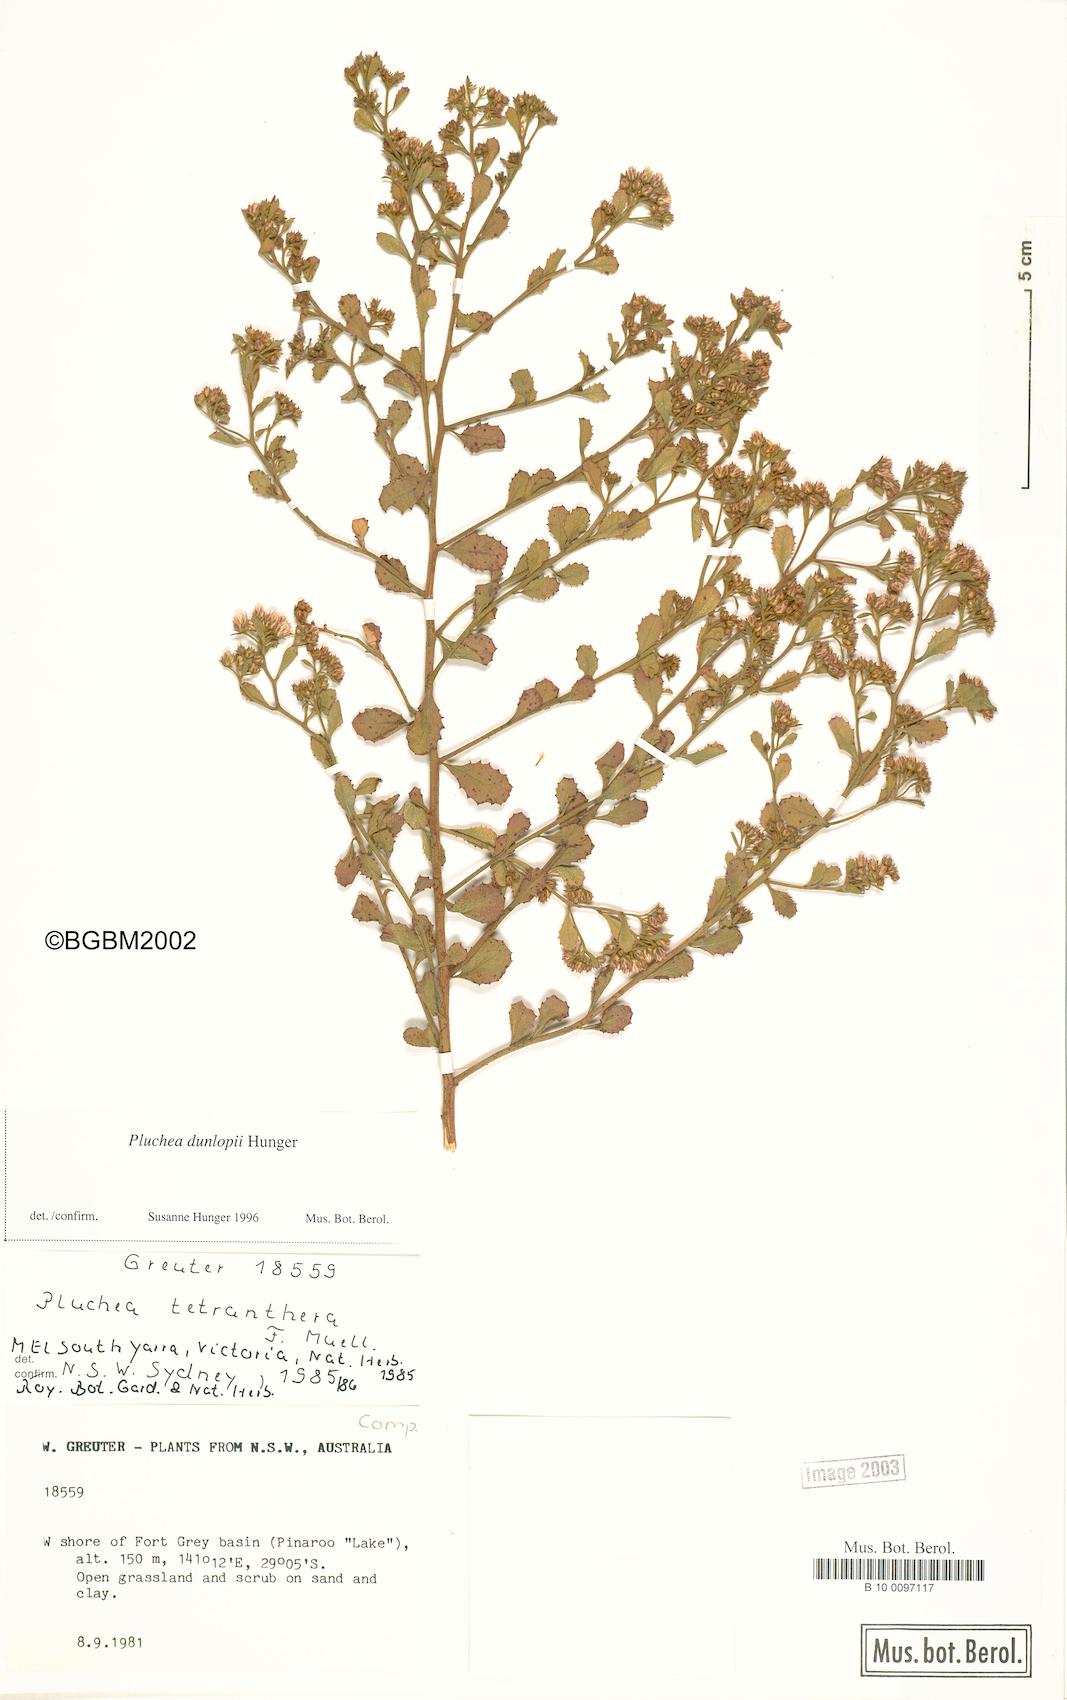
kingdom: Plantae
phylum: Tracheophyta
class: Magnoliopsida
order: Asterales
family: Asteraceae
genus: Pluchea
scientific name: Pluchea dunlopii
